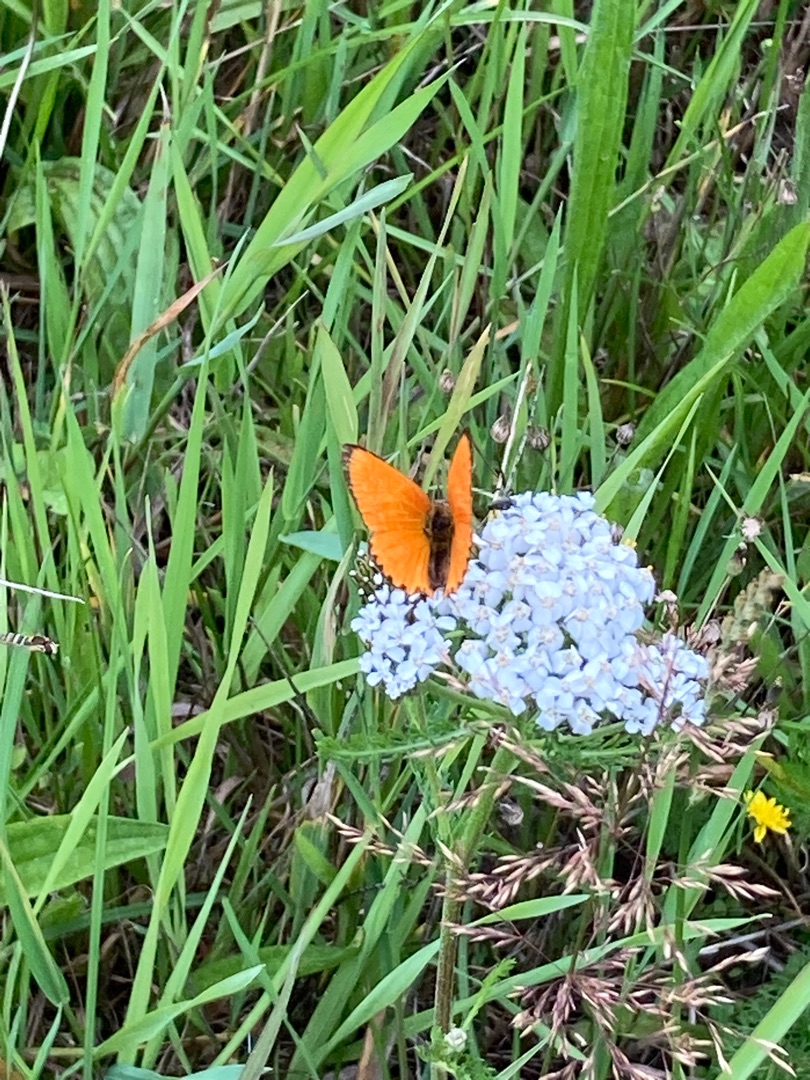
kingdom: Animalia
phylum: Arthropoda
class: Insecta
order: Lepidoptera
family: Lycaenidae
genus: Lycaena
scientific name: Lycaena virgaureae
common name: Dukatsommerfugl
